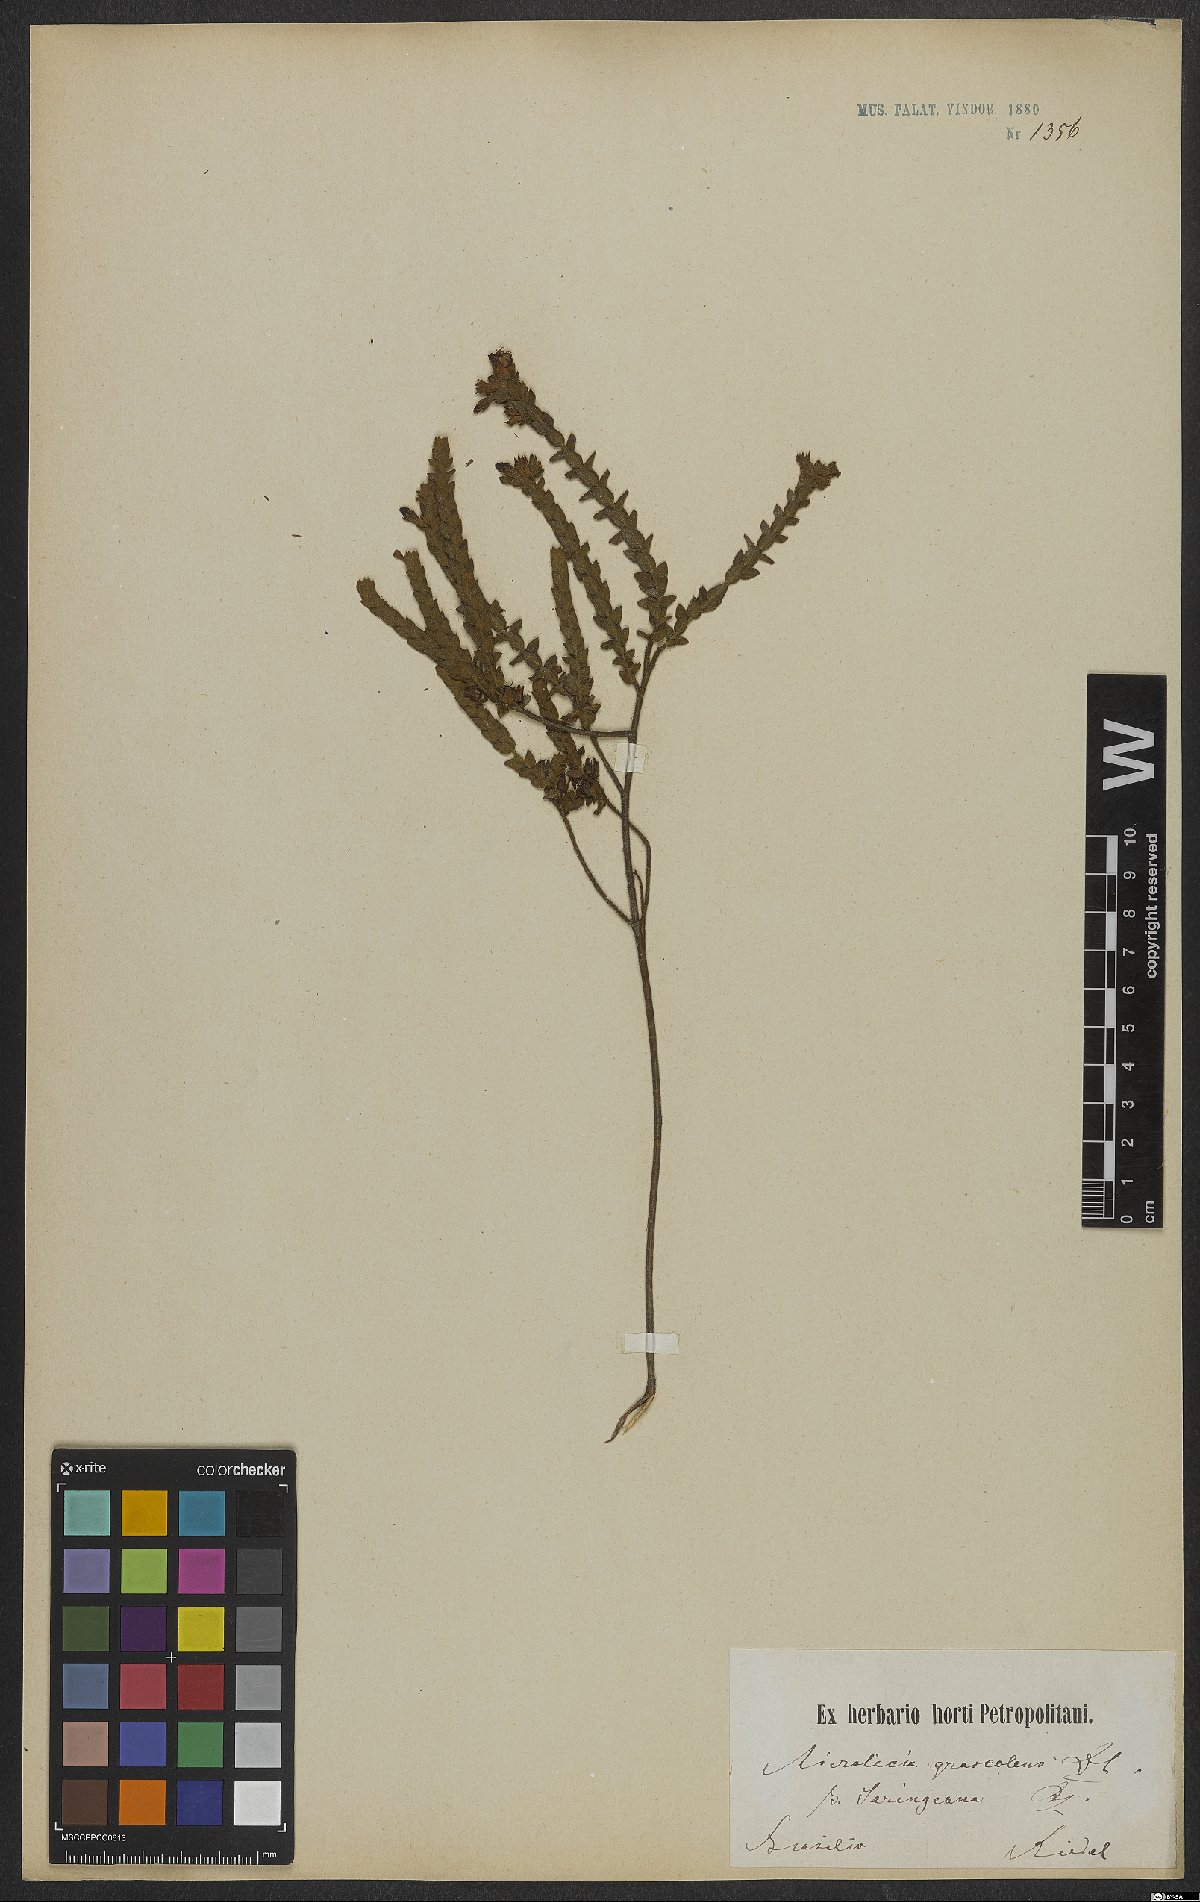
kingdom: Plantae
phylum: Tracheophyta
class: Magnoliopsida
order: Myrtales
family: Melastomataceae
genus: Microlicia
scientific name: Microlicia graveolens
